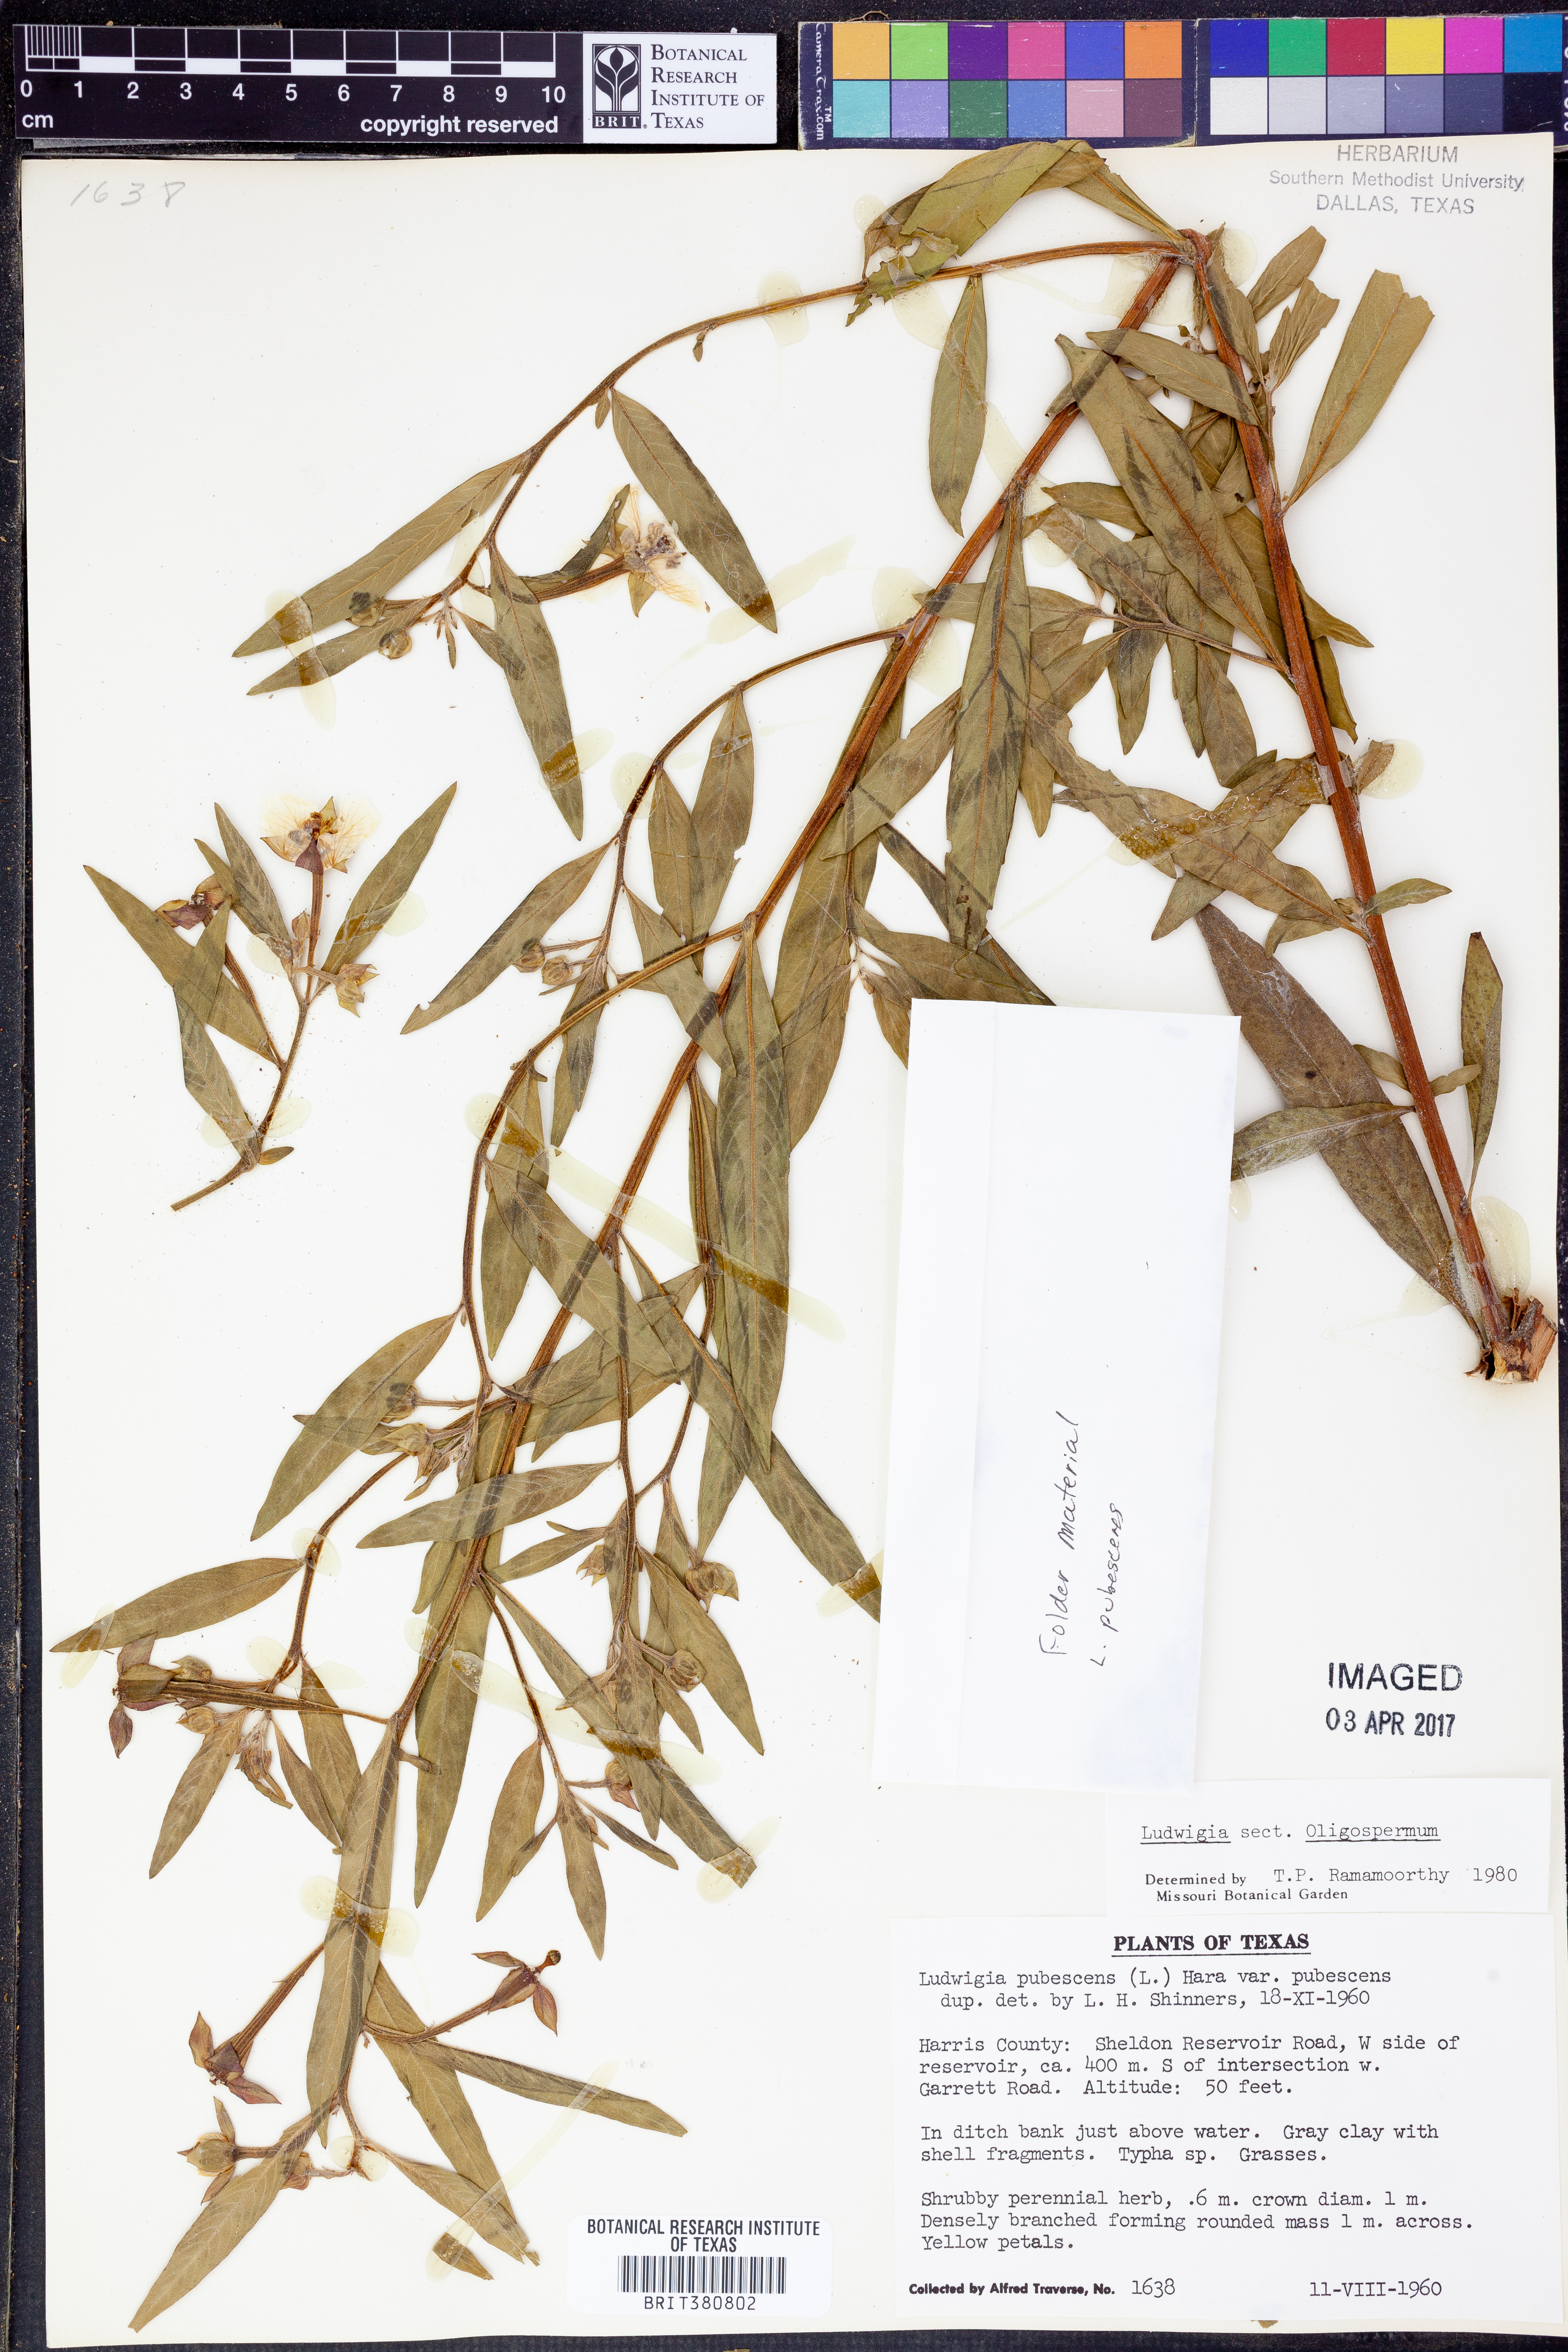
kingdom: Plantae
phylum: Tracheophyta
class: Magnoliopsida
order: Myrtales
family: Onagraceae
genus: Ludwigia
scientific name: Ludwigia
